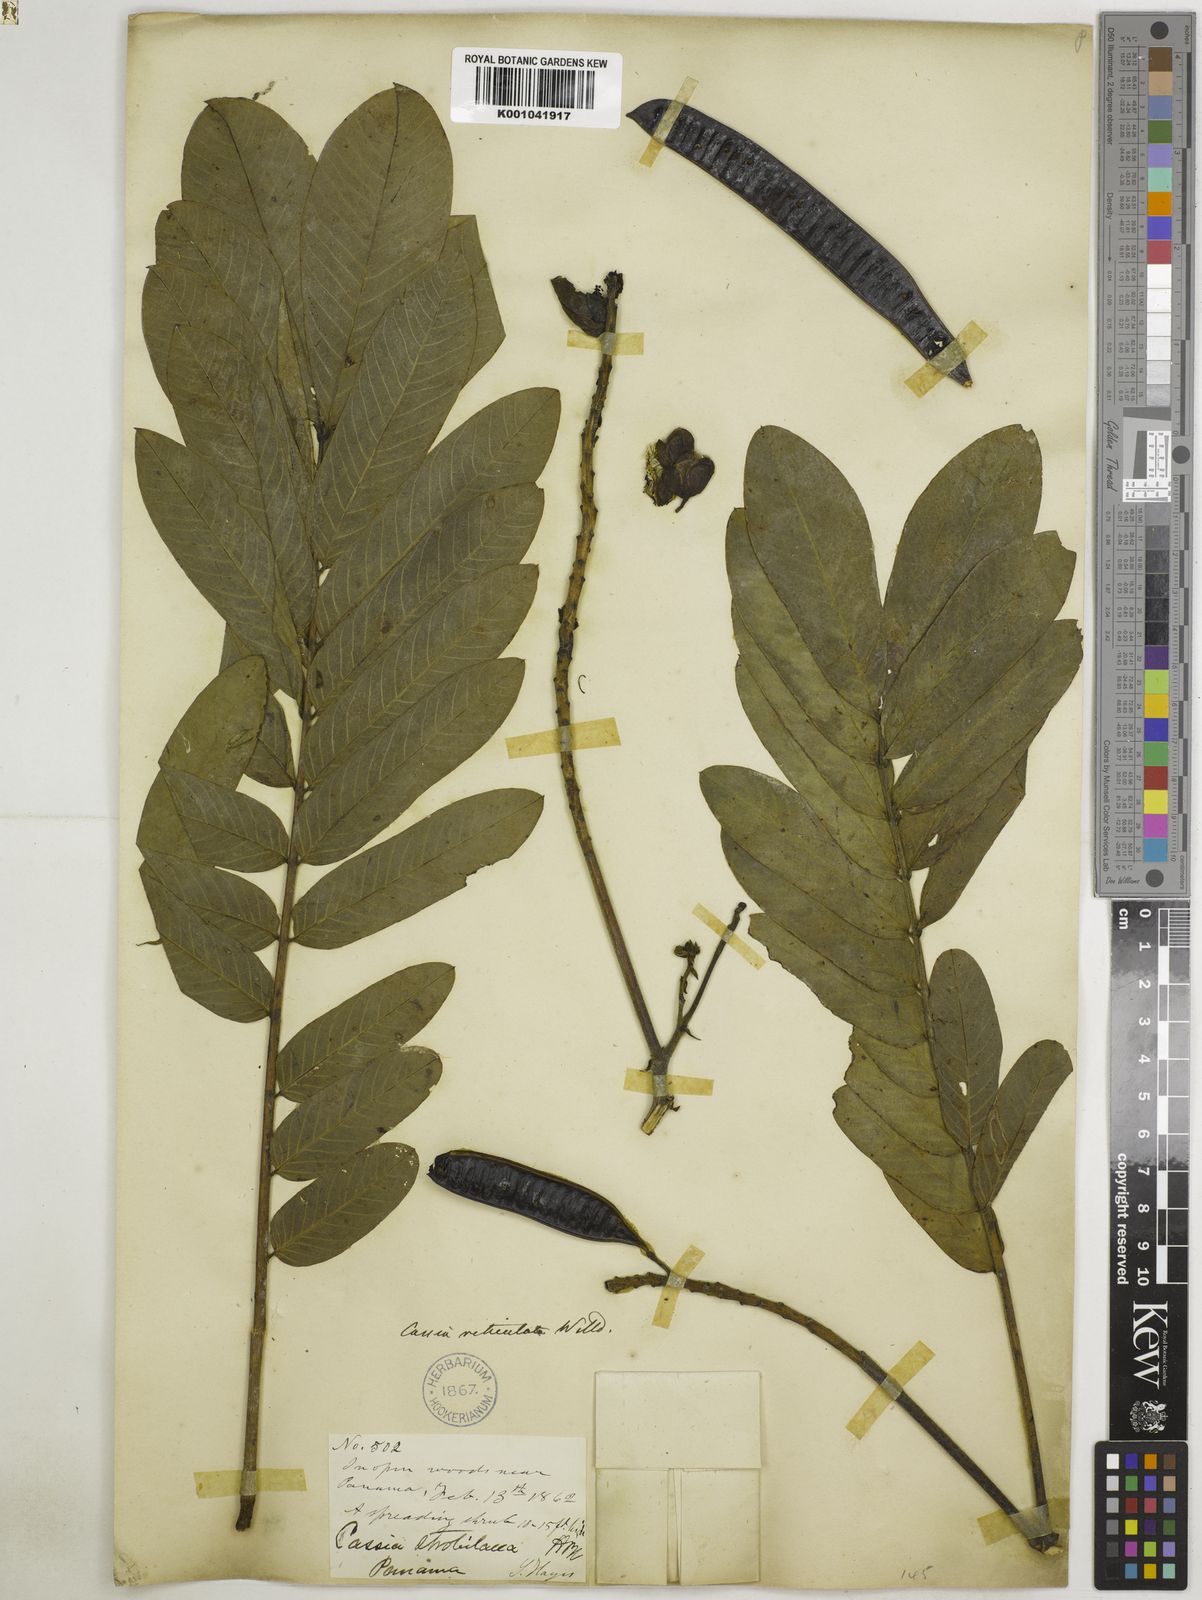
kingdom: Plantae
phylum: Tracheophyta
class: Magnoliopsida
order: Fabales
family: Fabaceae
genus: Senna
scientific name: Senna reticulata
